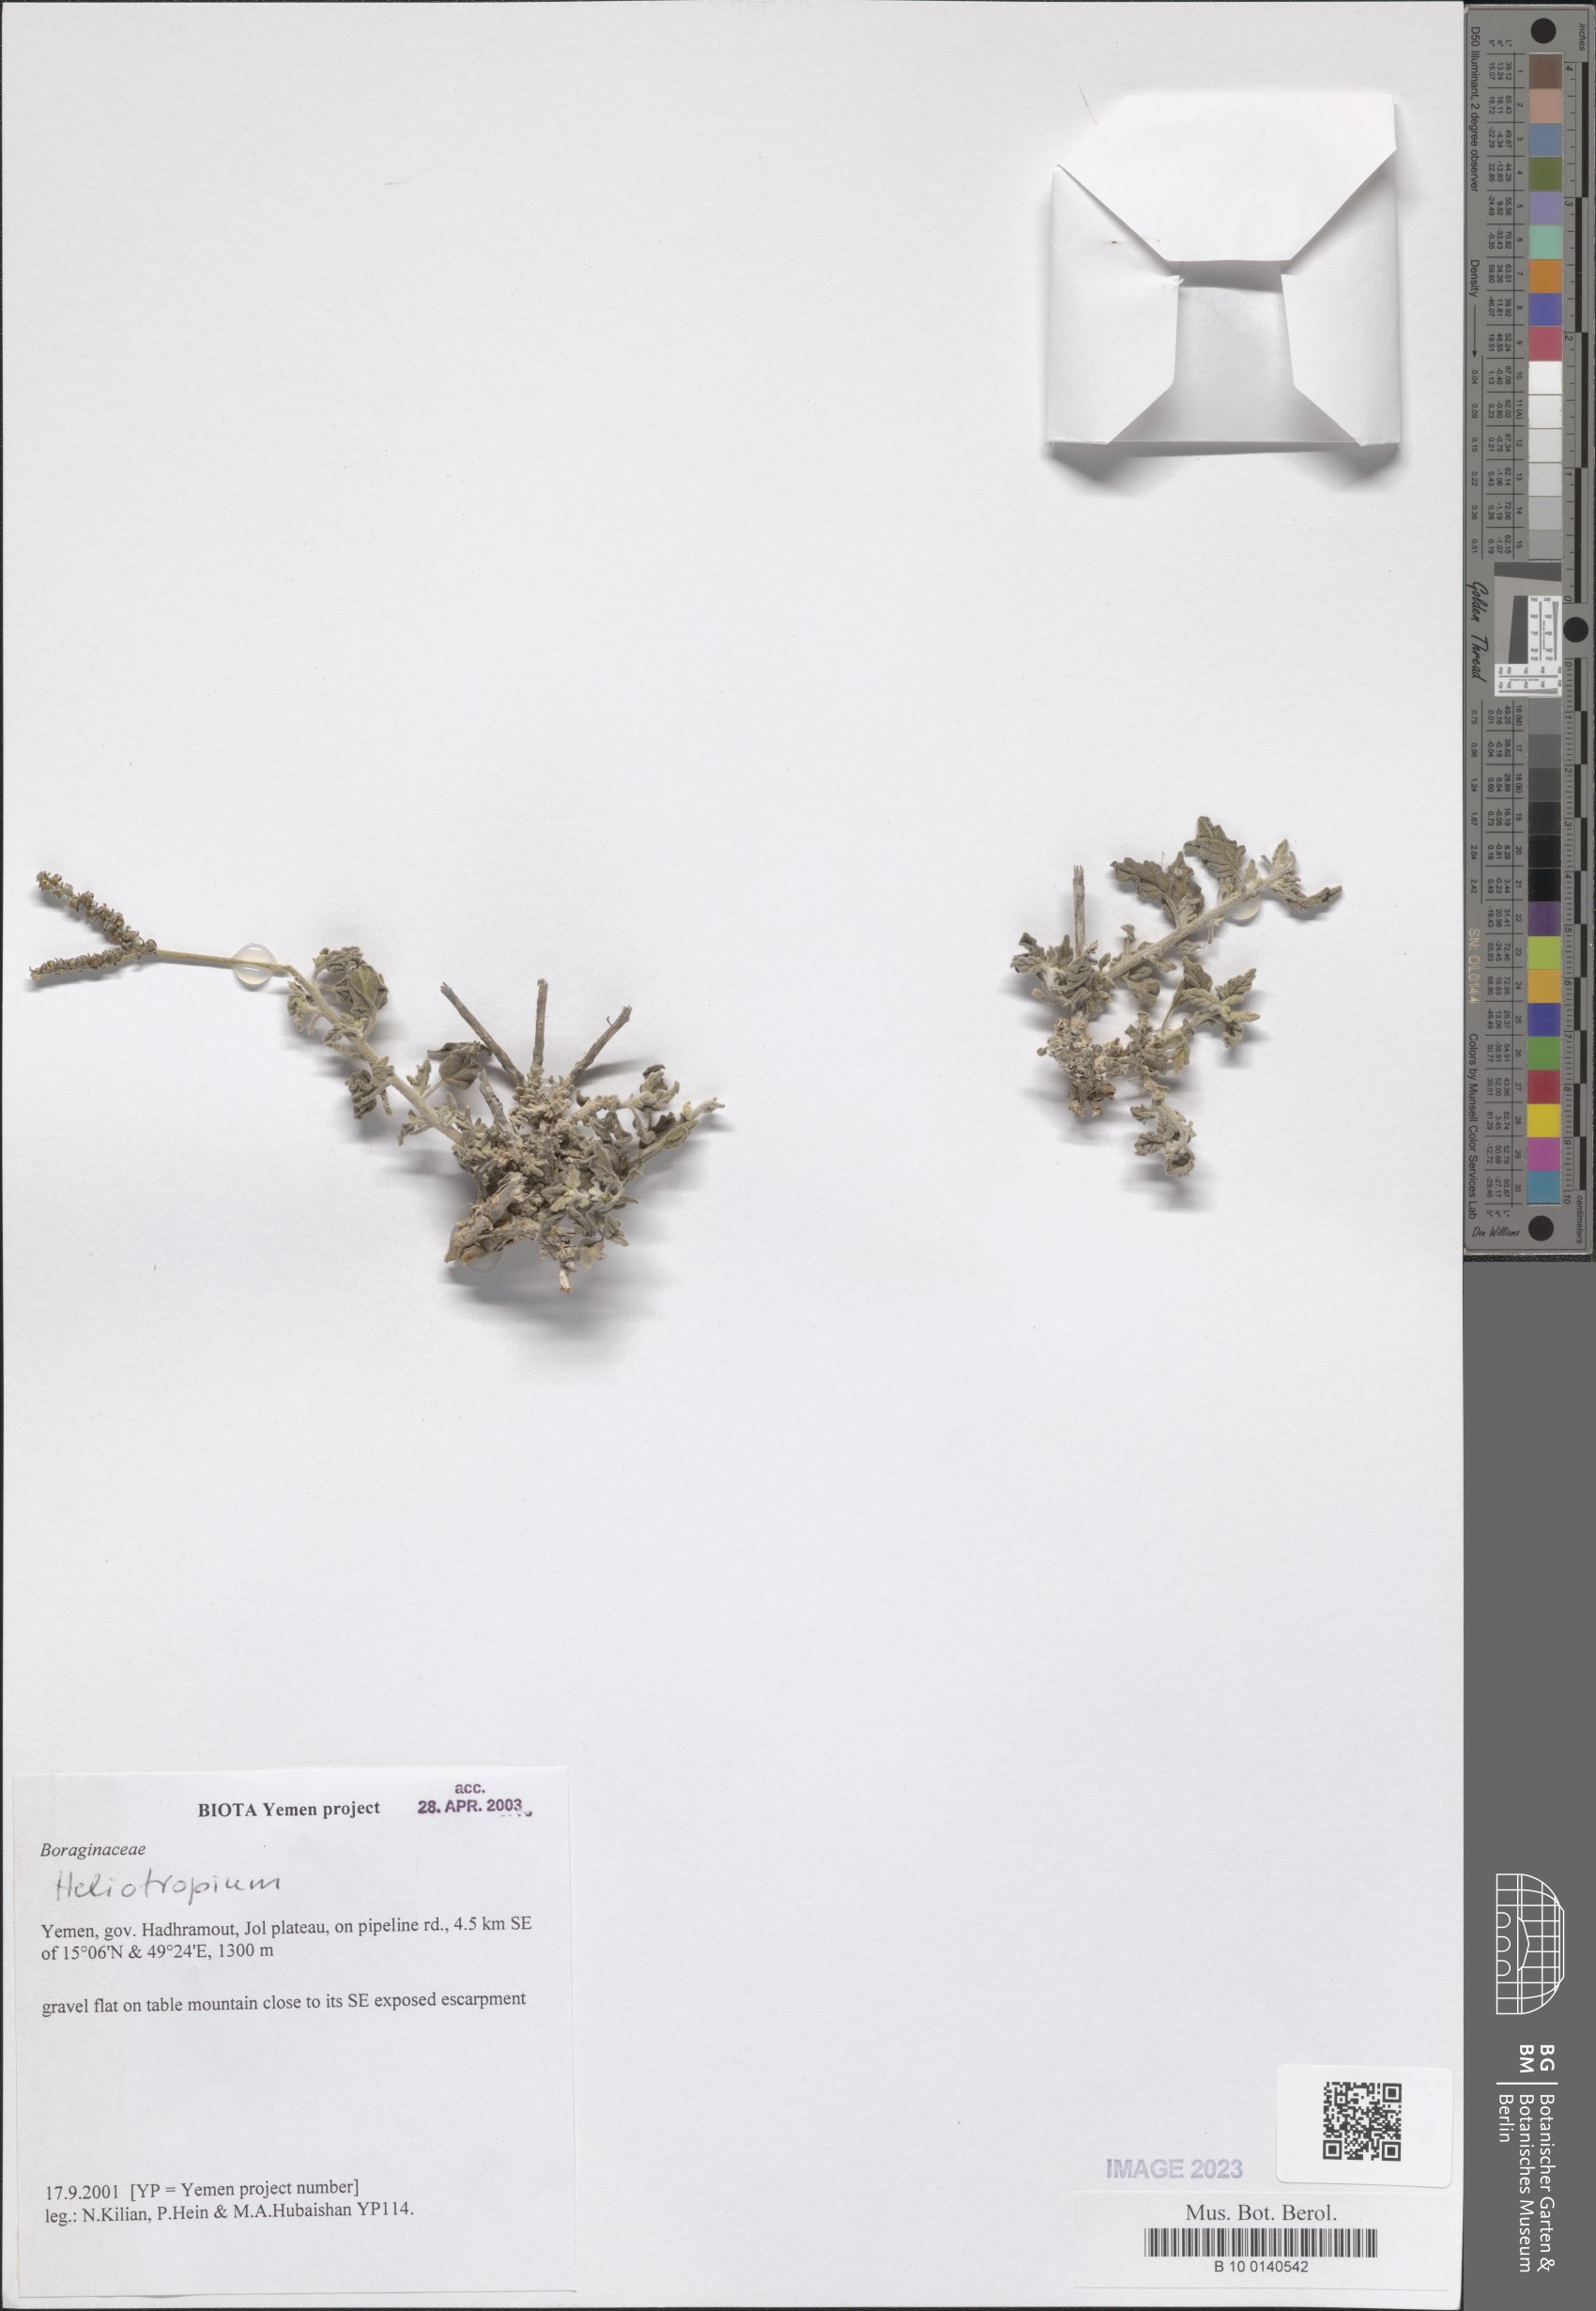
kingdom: Plantae
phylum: Tracheophyta
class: Magnoliopsida
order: Boraginales
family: Heliotropiaceae
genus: Heliotropium
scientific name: Heliotropium
